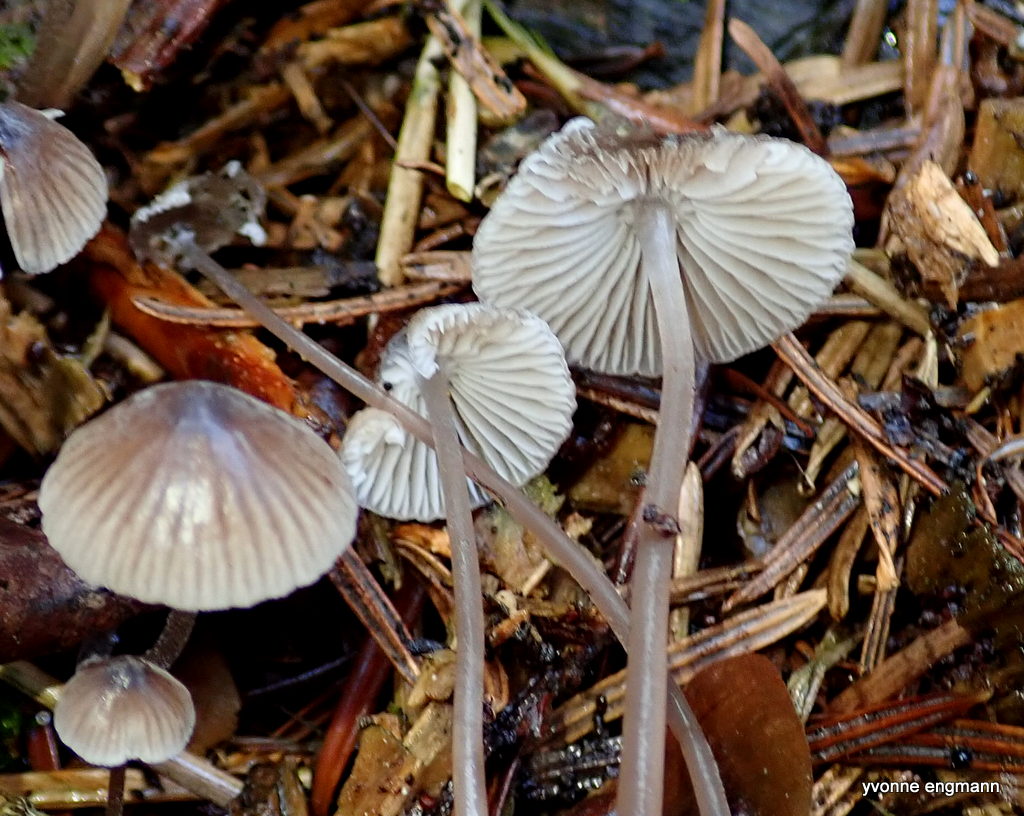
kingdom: Fungi
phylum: Basidiomycota
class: Agaricomycetes
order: Agaricales
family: Mycenaceae
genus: Mycena
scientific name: Mycena leptocephala
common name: klor-huesvamp
